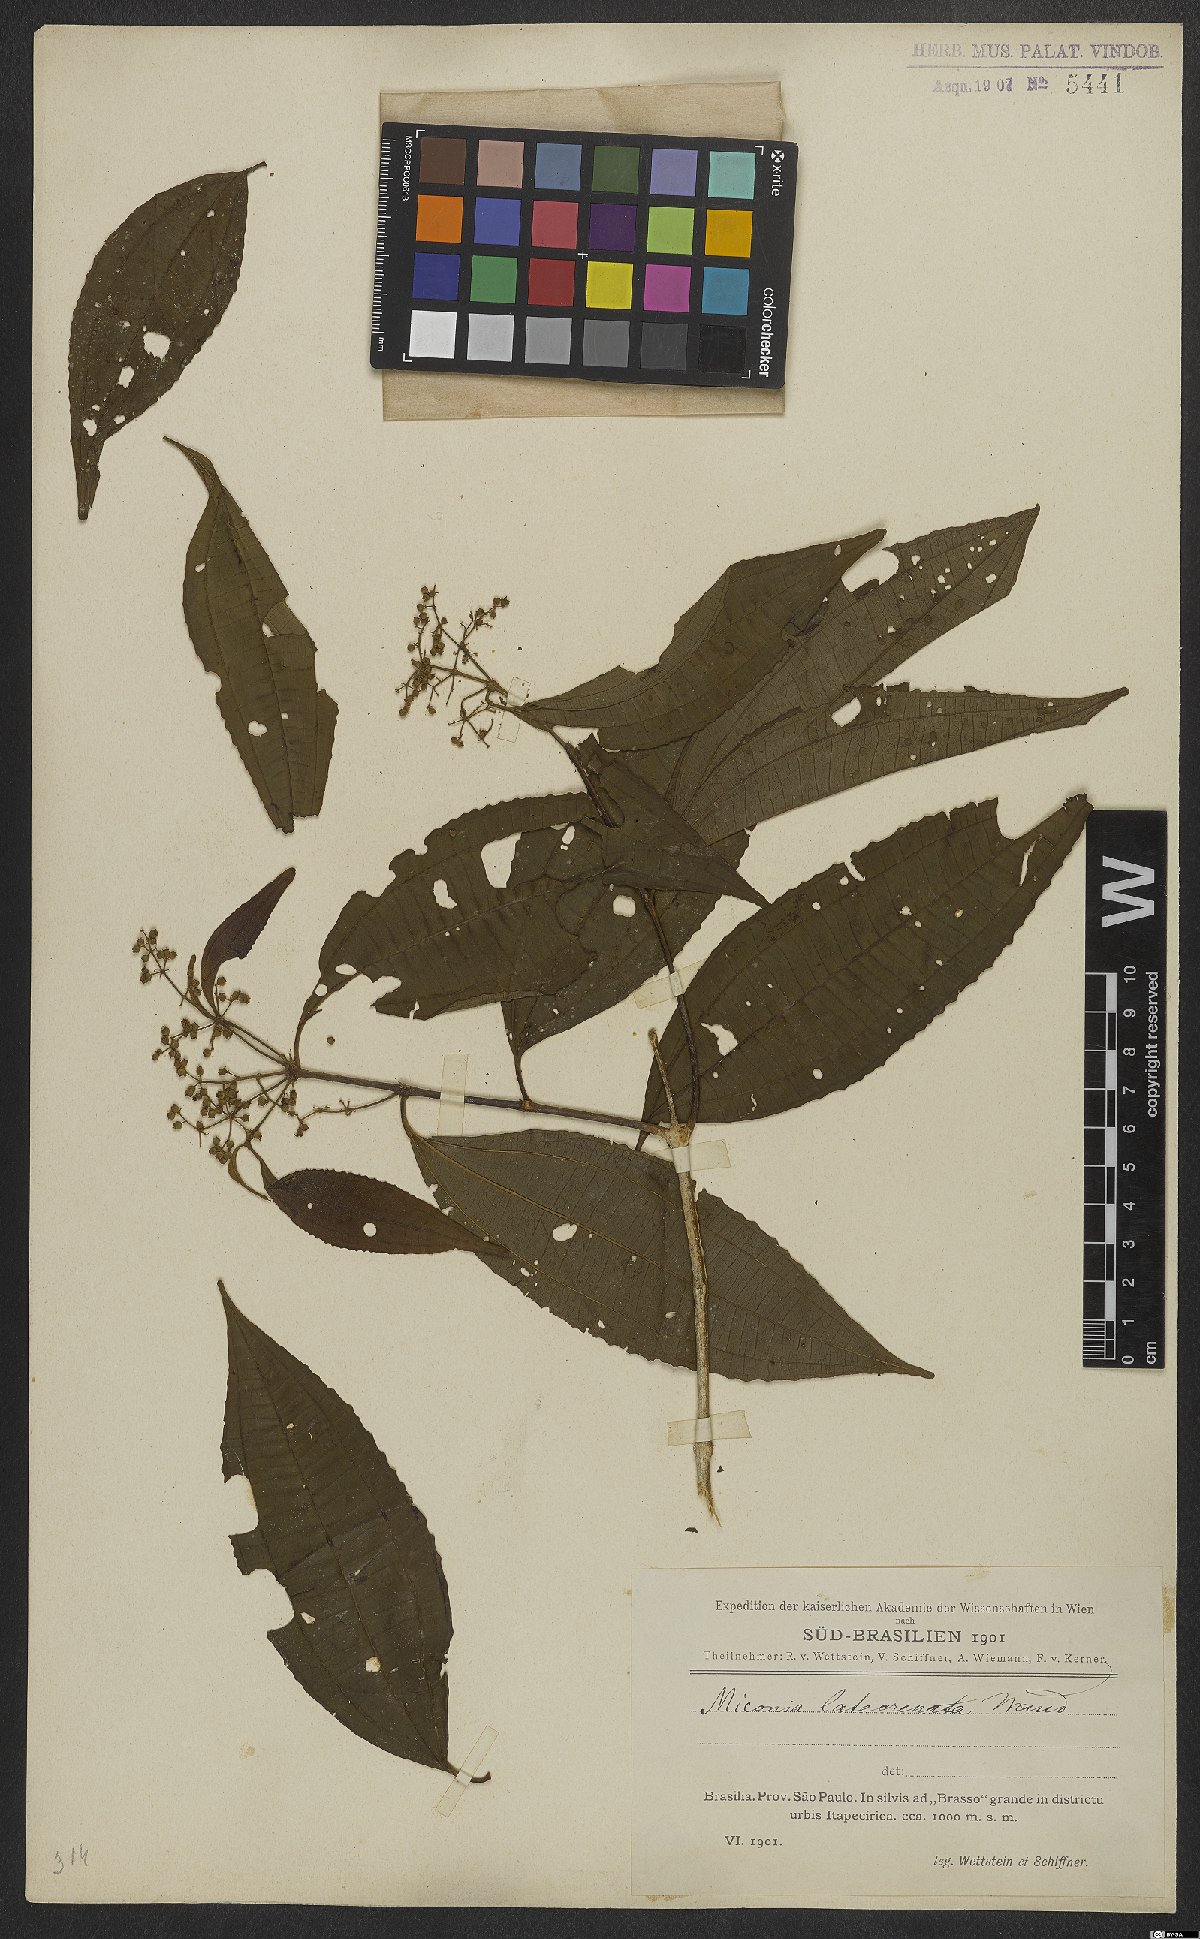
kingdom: Plantae
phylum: Tracheophyta
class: Magnoliopsida
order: Myrtales
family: Melastomataceae
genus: Miconia
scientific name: Miconia latecrenata
